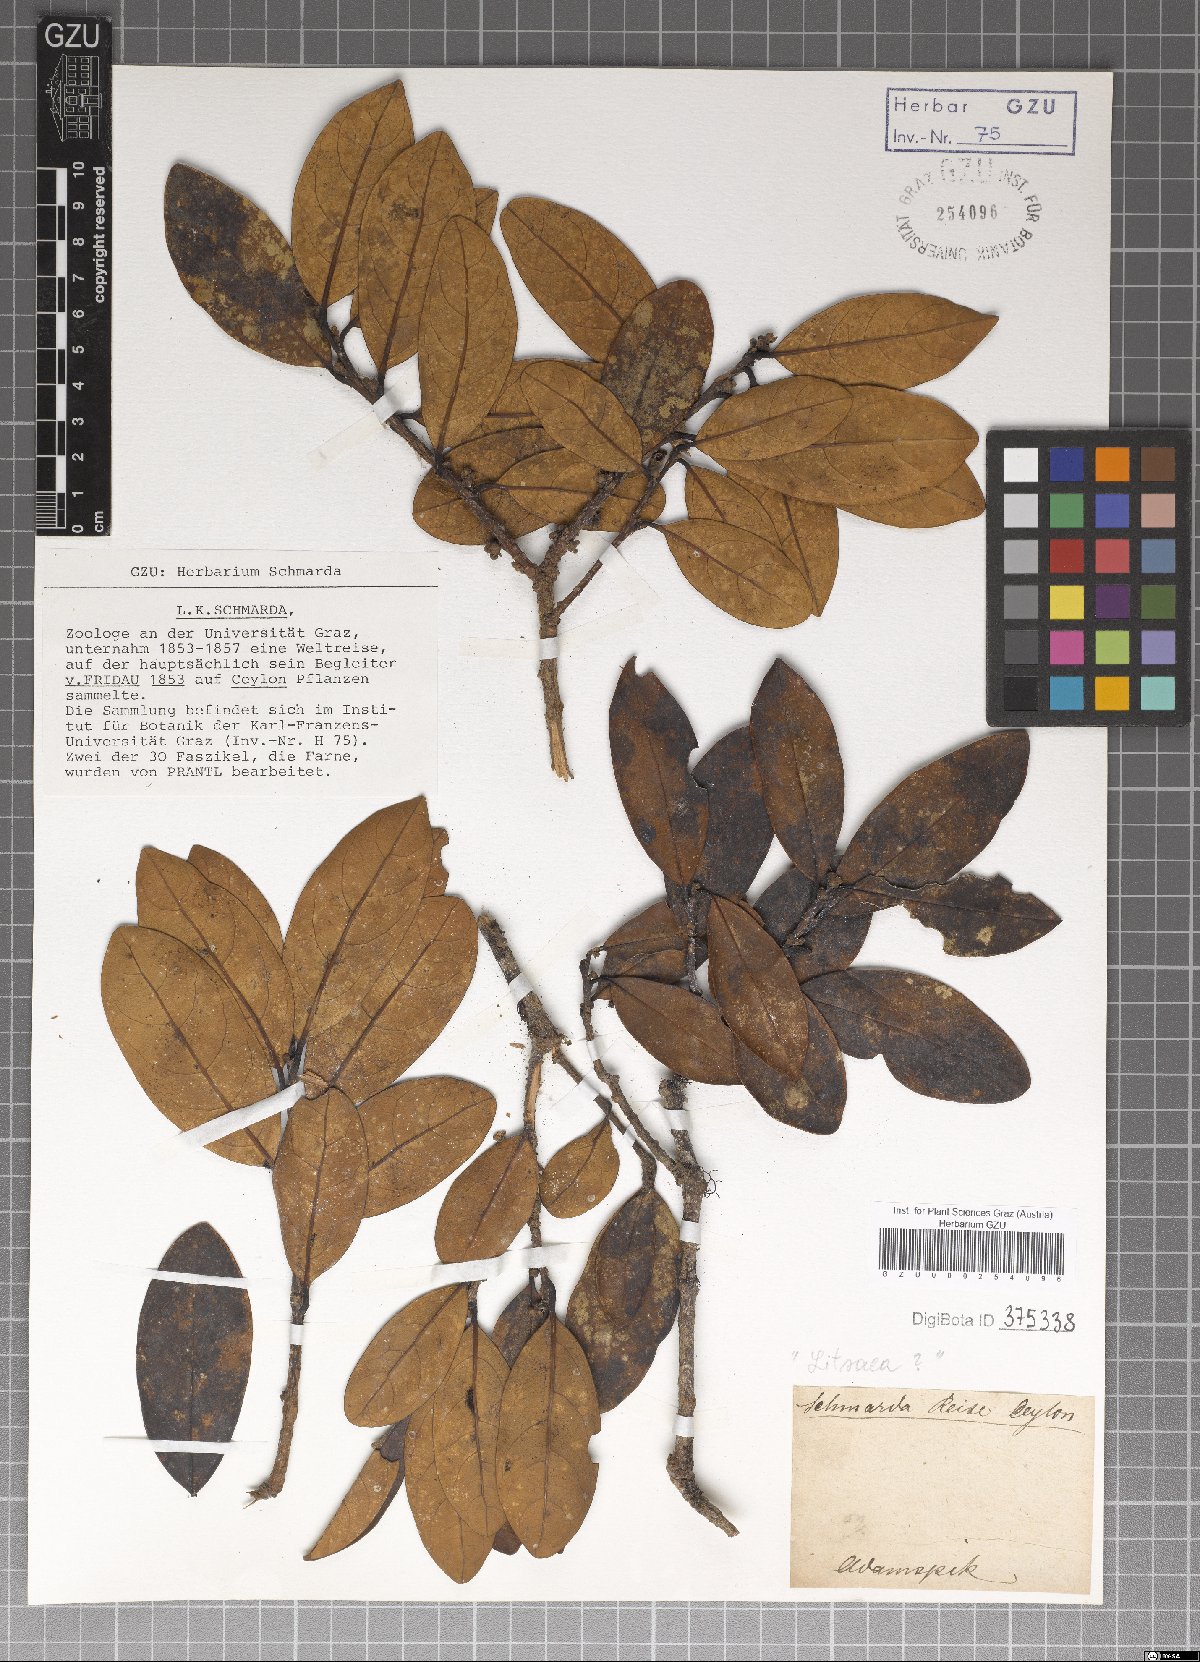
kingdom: Plantae
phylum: Tracheophyta
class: Magnoliopsida
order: Laurales
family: Lauraceae
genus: Litsea
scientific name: Litsea
